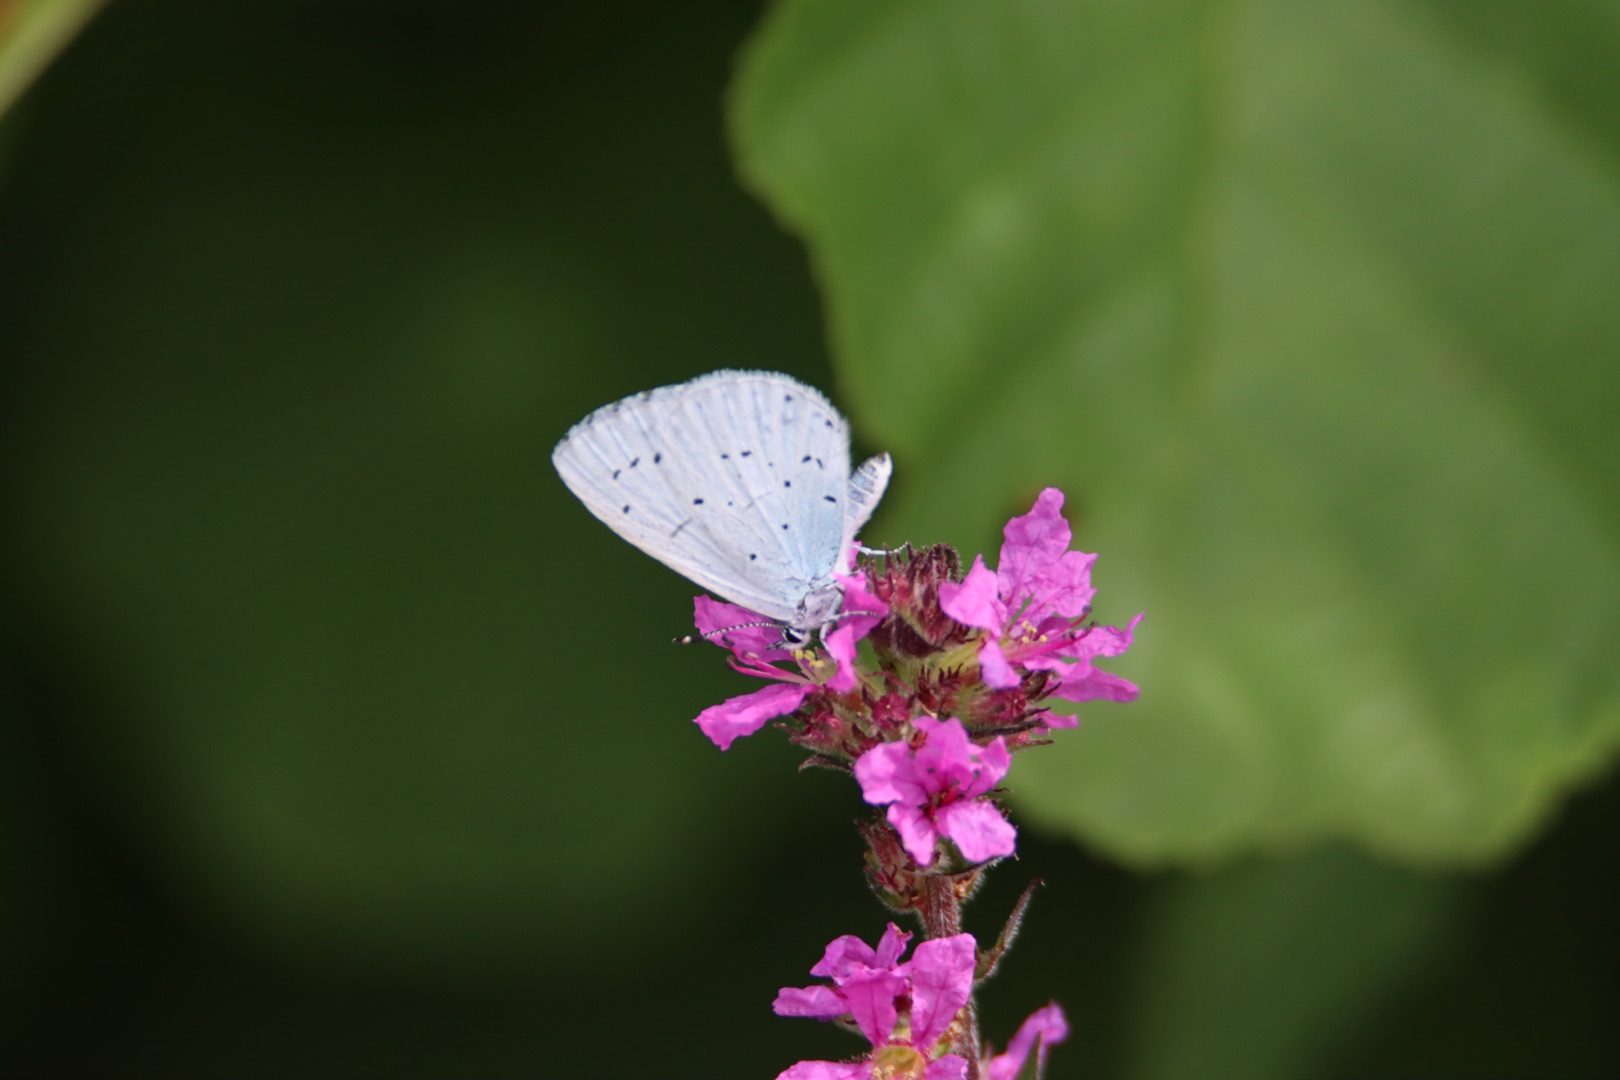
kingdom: Animalia
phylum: Arthropoda
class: Insecta
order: Lepidoptera
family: Lycaenidae
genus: Celastrina
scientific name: Celastrina argiolus
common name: Skovblåfugl
